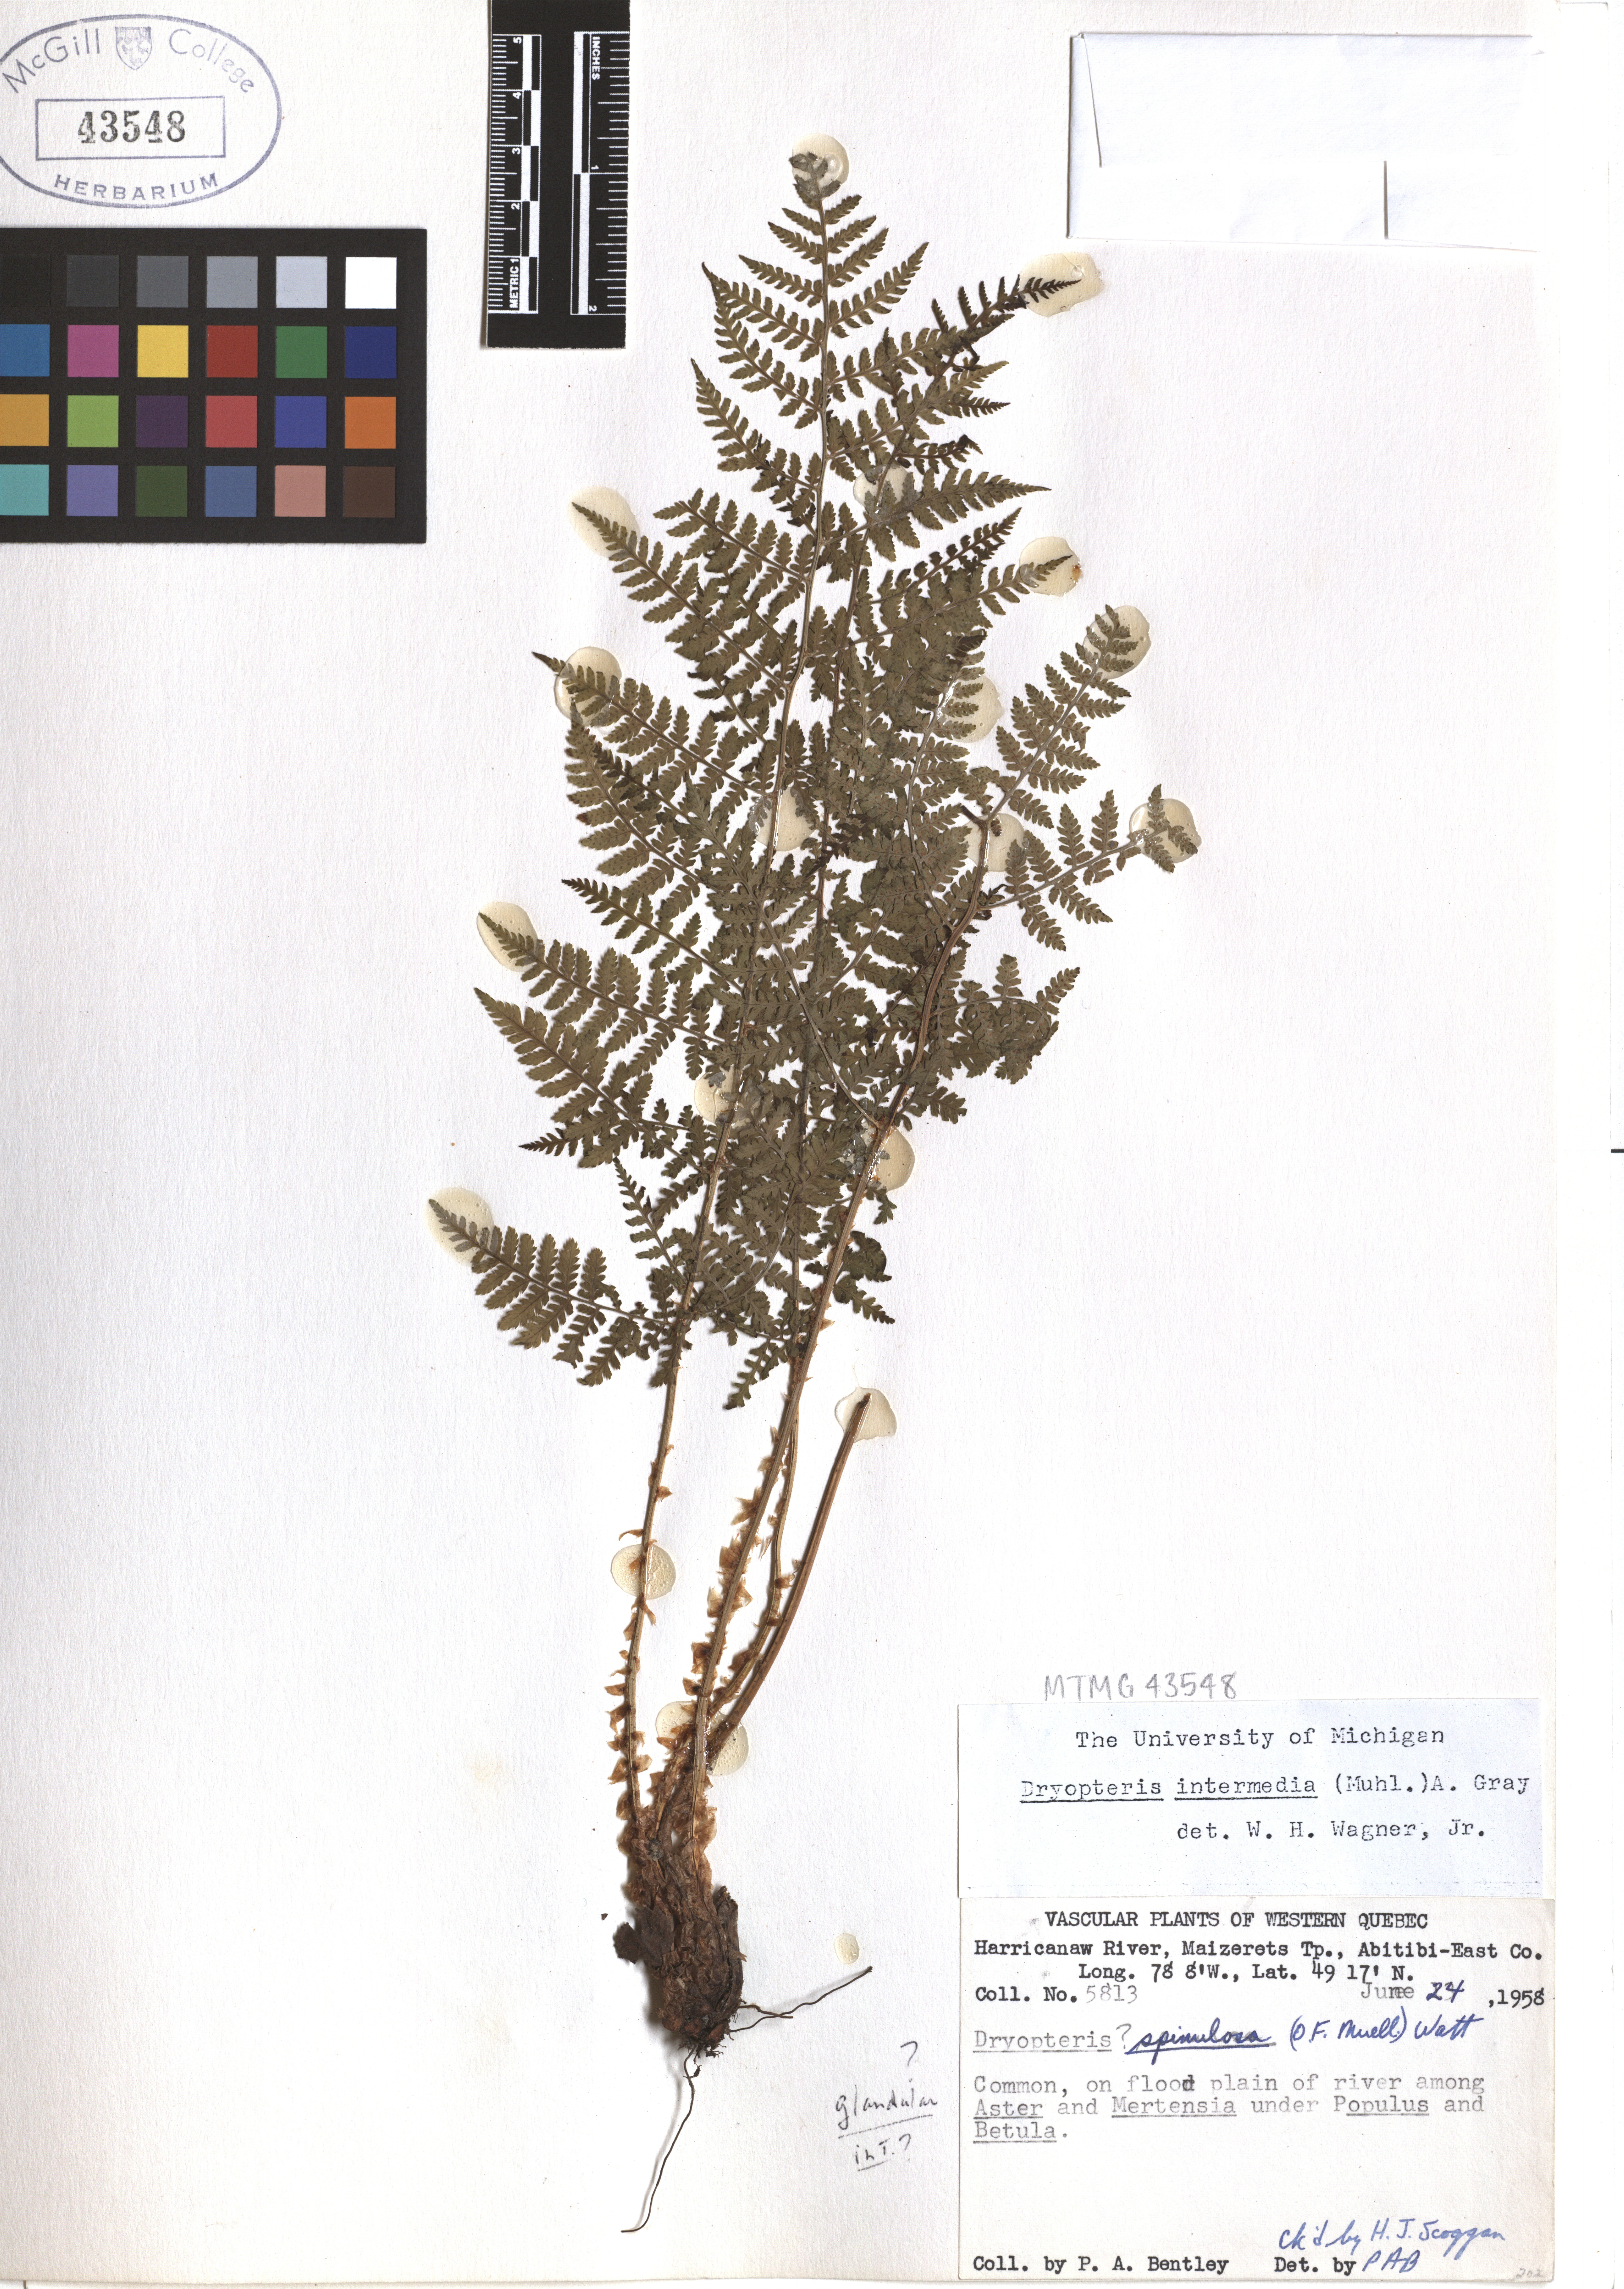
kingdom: Plantae
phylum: Tracheophyta
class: Polypodiopsida
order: Polypodiales
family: Dryopteridaceae
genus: Dryopteris
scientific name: Dryopteris intermedia
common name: Evergreen wood fern
